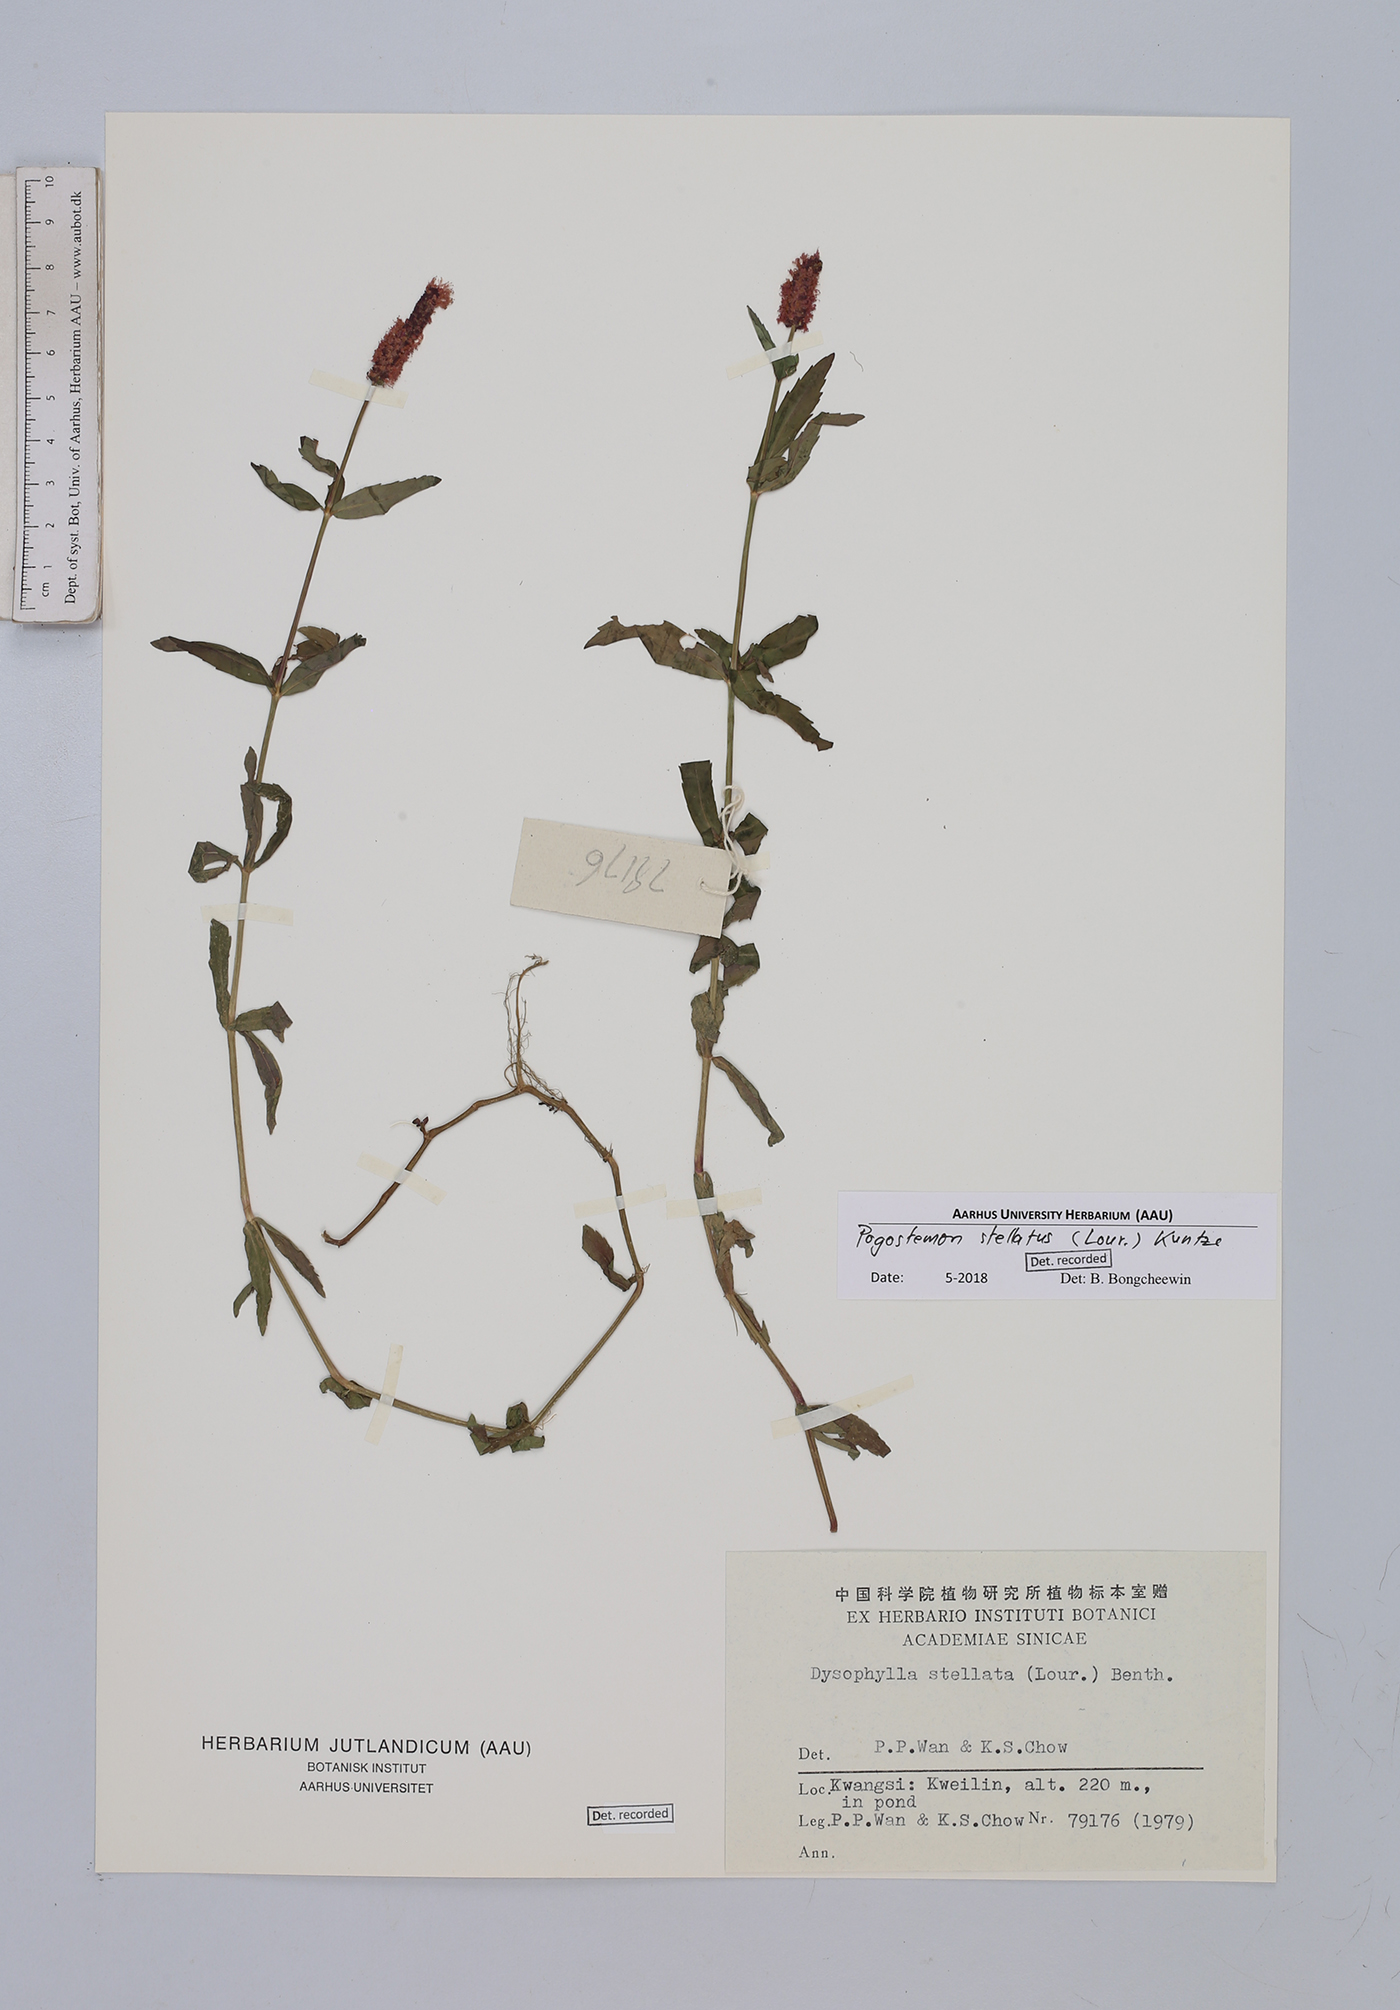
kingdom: Plantae
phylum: Tracheophyta
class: Magnoliopsida
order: Lamiales
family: Lamiaceae
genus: Pogostemon
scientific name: Pogostemon stellatus
